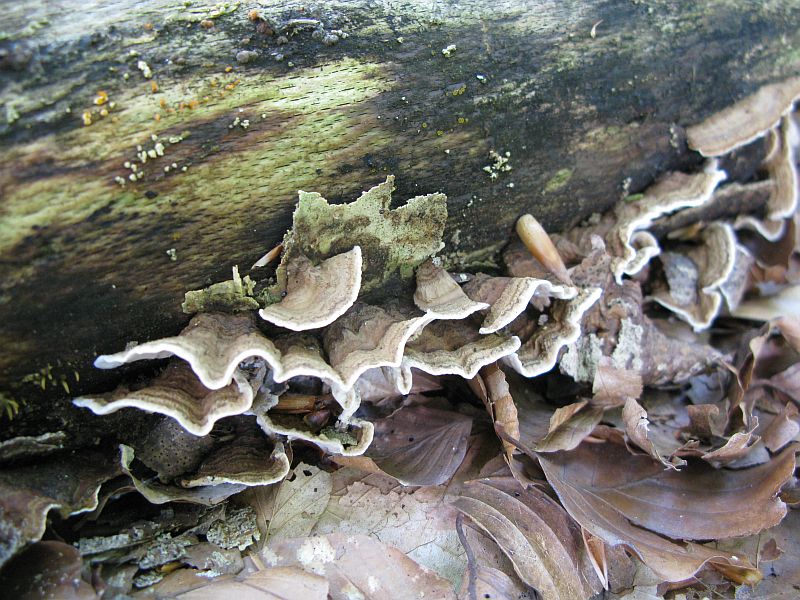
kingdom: Fungi
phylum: Basidiomycota
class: Agaricomycetes
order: Russulales
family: Hericiaceae
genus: Laxitextum
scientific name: Laxitextum bicolor
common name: tvefarvet filtskind
